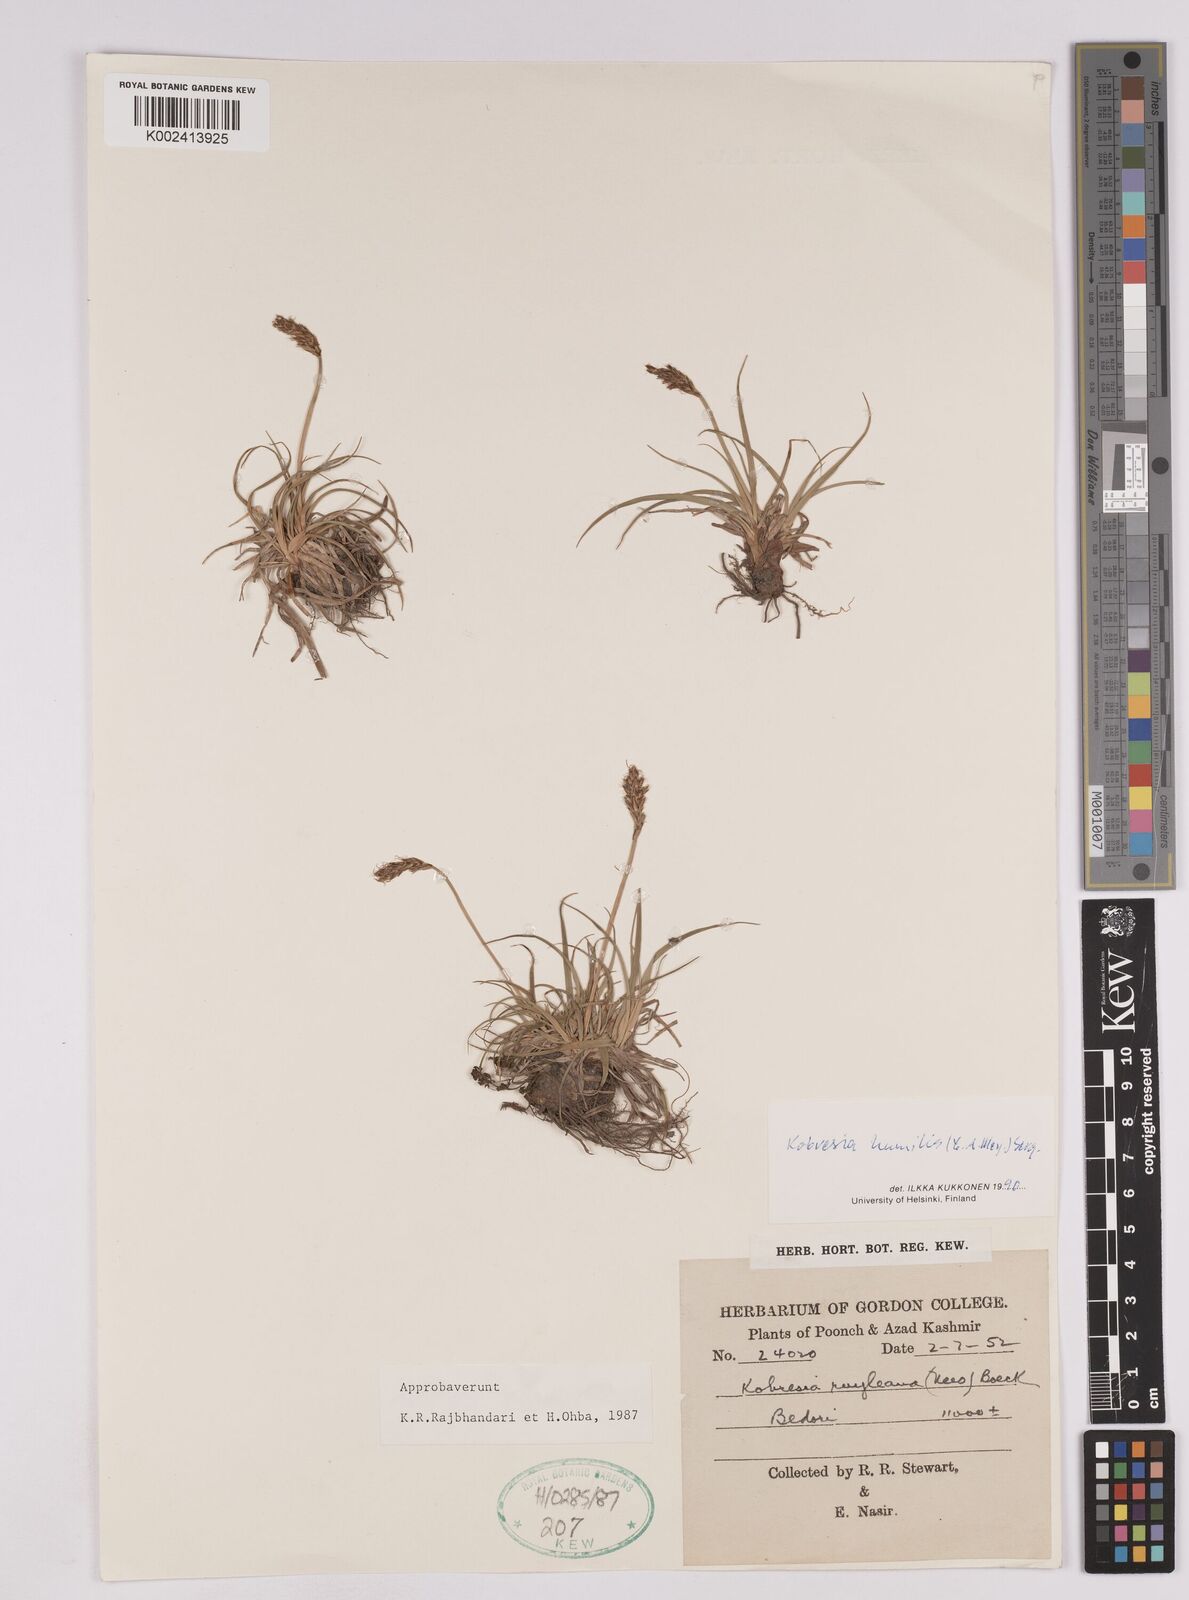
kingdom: Plantae
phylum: Tracheophyta
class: Liliopsida
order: Poales
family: Cyperaceae
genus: Carex
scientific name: Carex alatauensis
